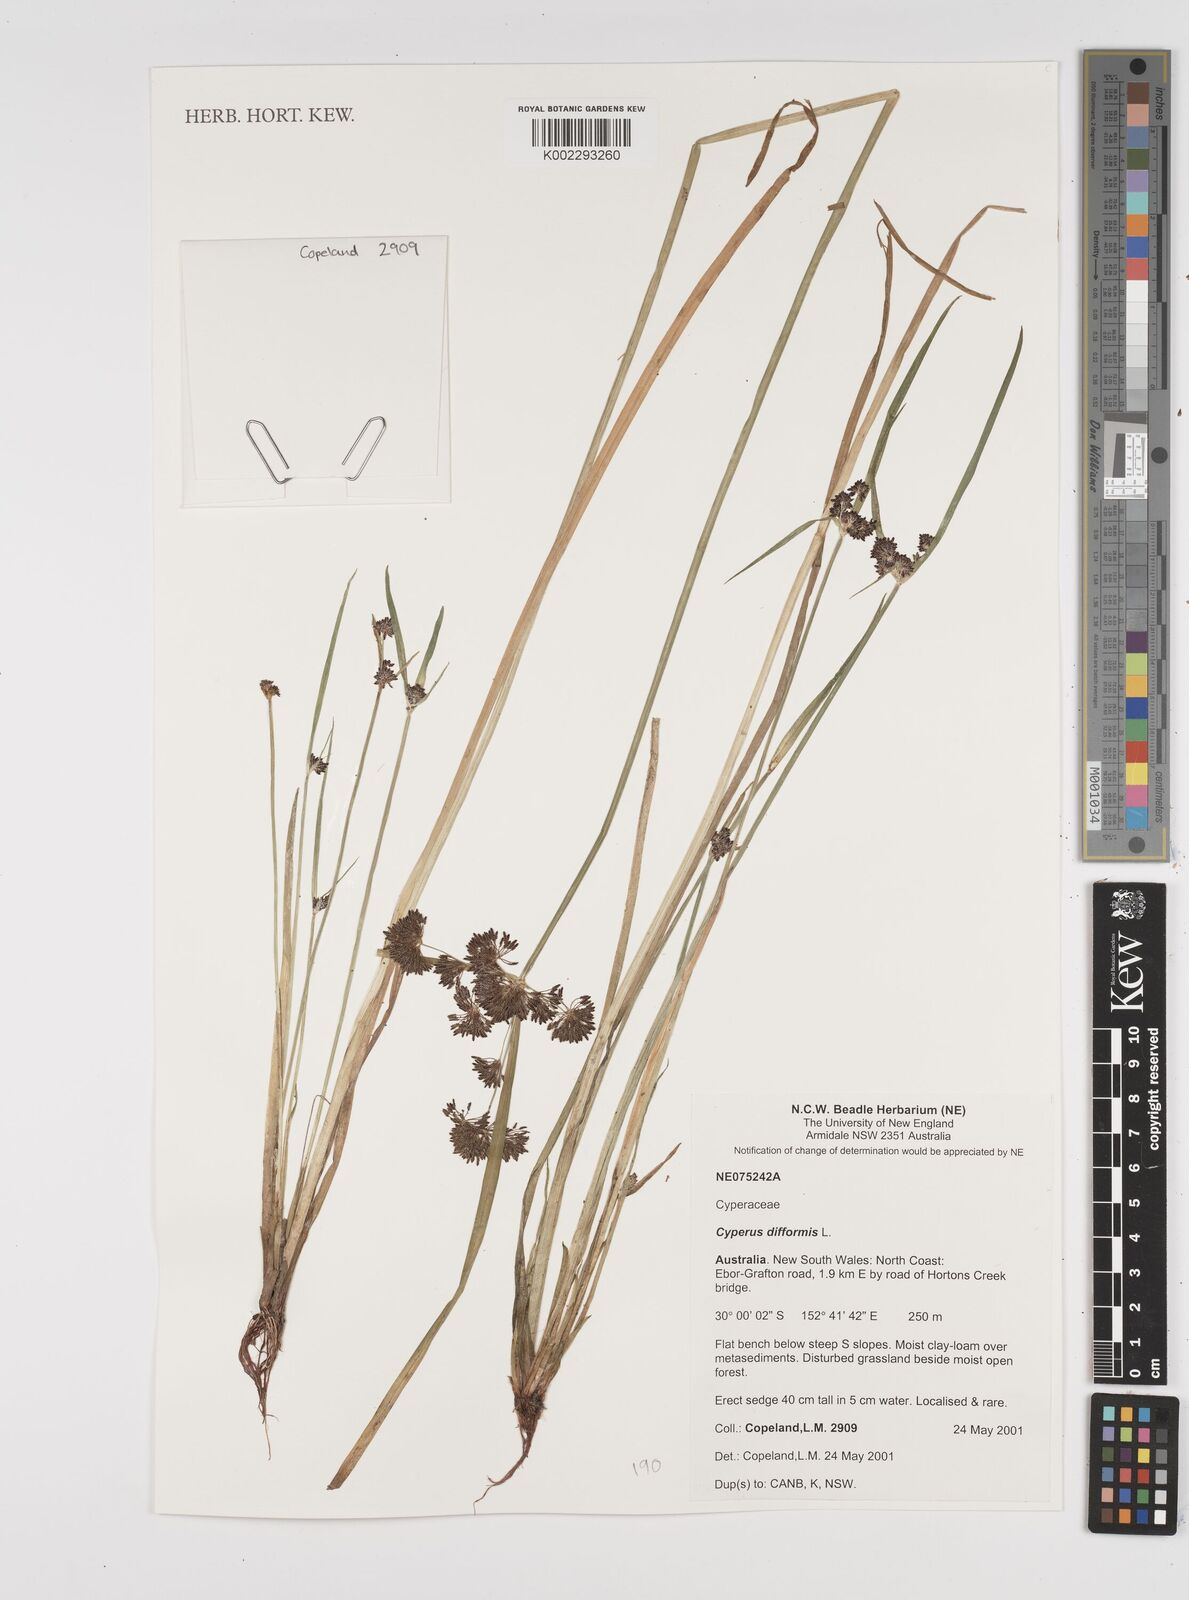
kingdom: Plantae
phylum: Tracheophyta
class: Liliopsida
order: Poales
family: Cyperaceae
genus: Cyperus
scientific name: Cyperus difformis
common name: Variable flatsedge
